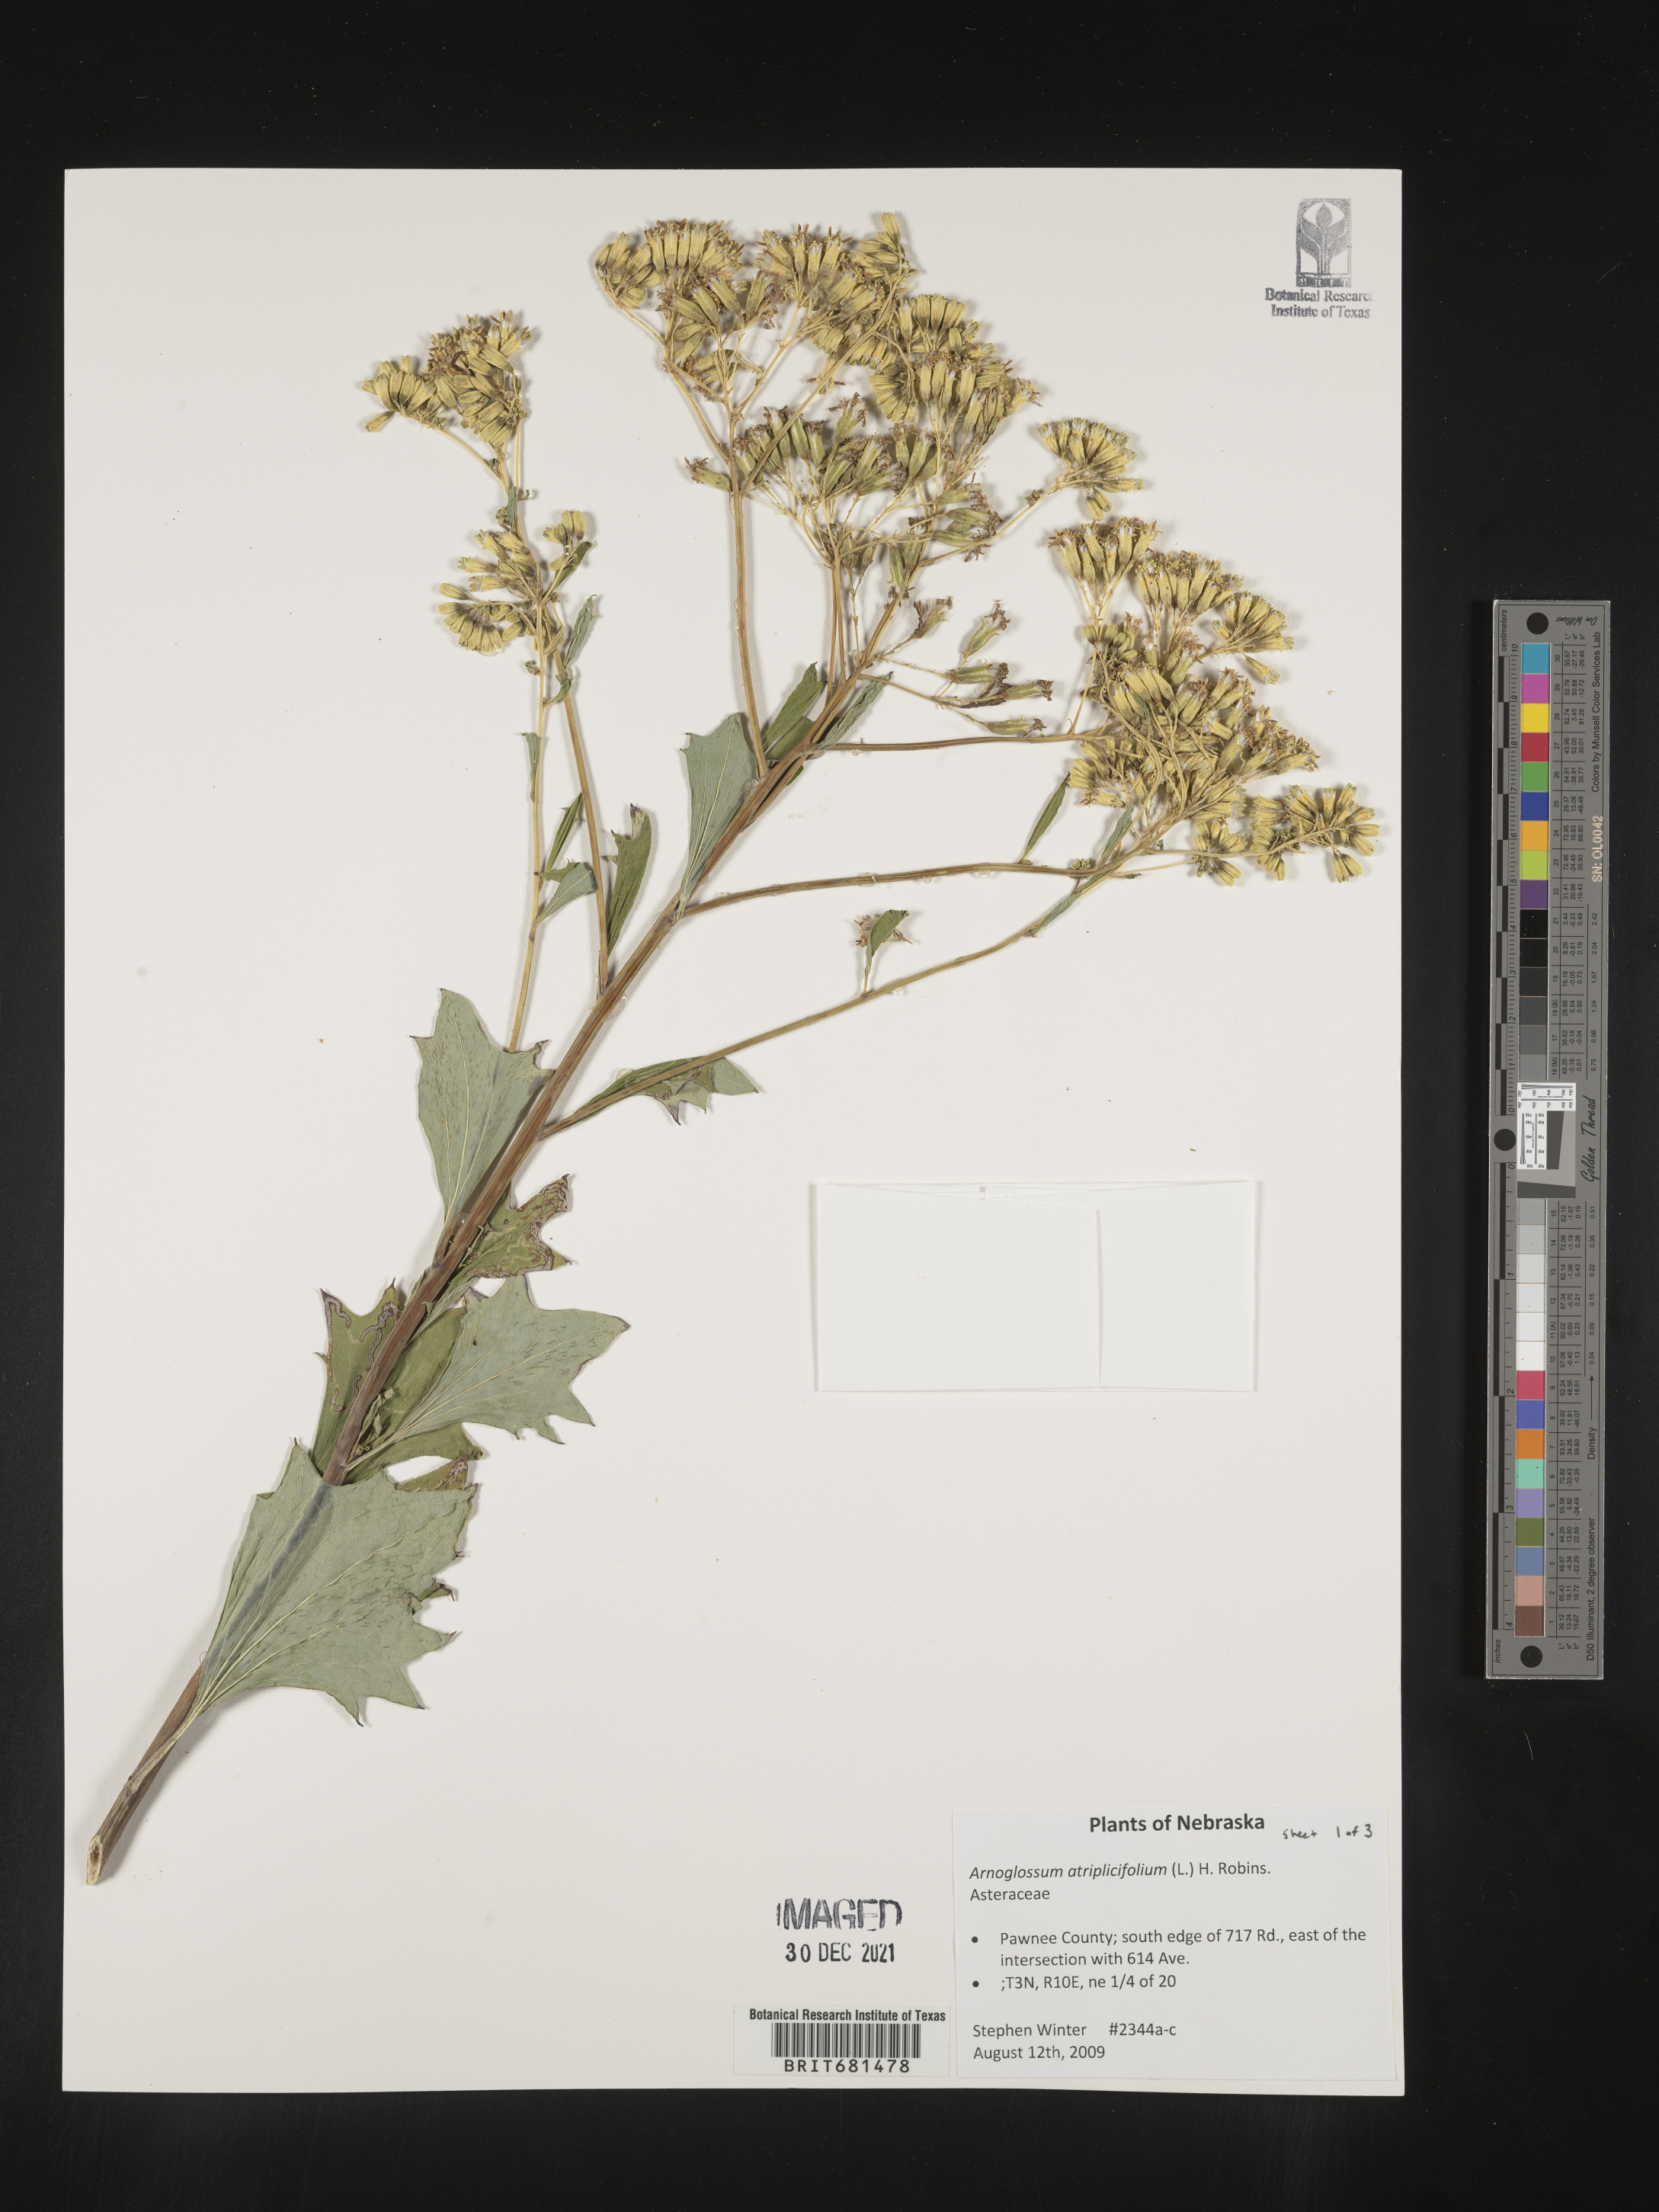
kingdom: Plantae
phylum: Tracheophyta
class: Magnoliopsida
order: Asterales
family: Asteraceae
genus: Arnoglossum
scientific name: Arnoglossum atriplicifolium
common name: Pale indian-plantain
